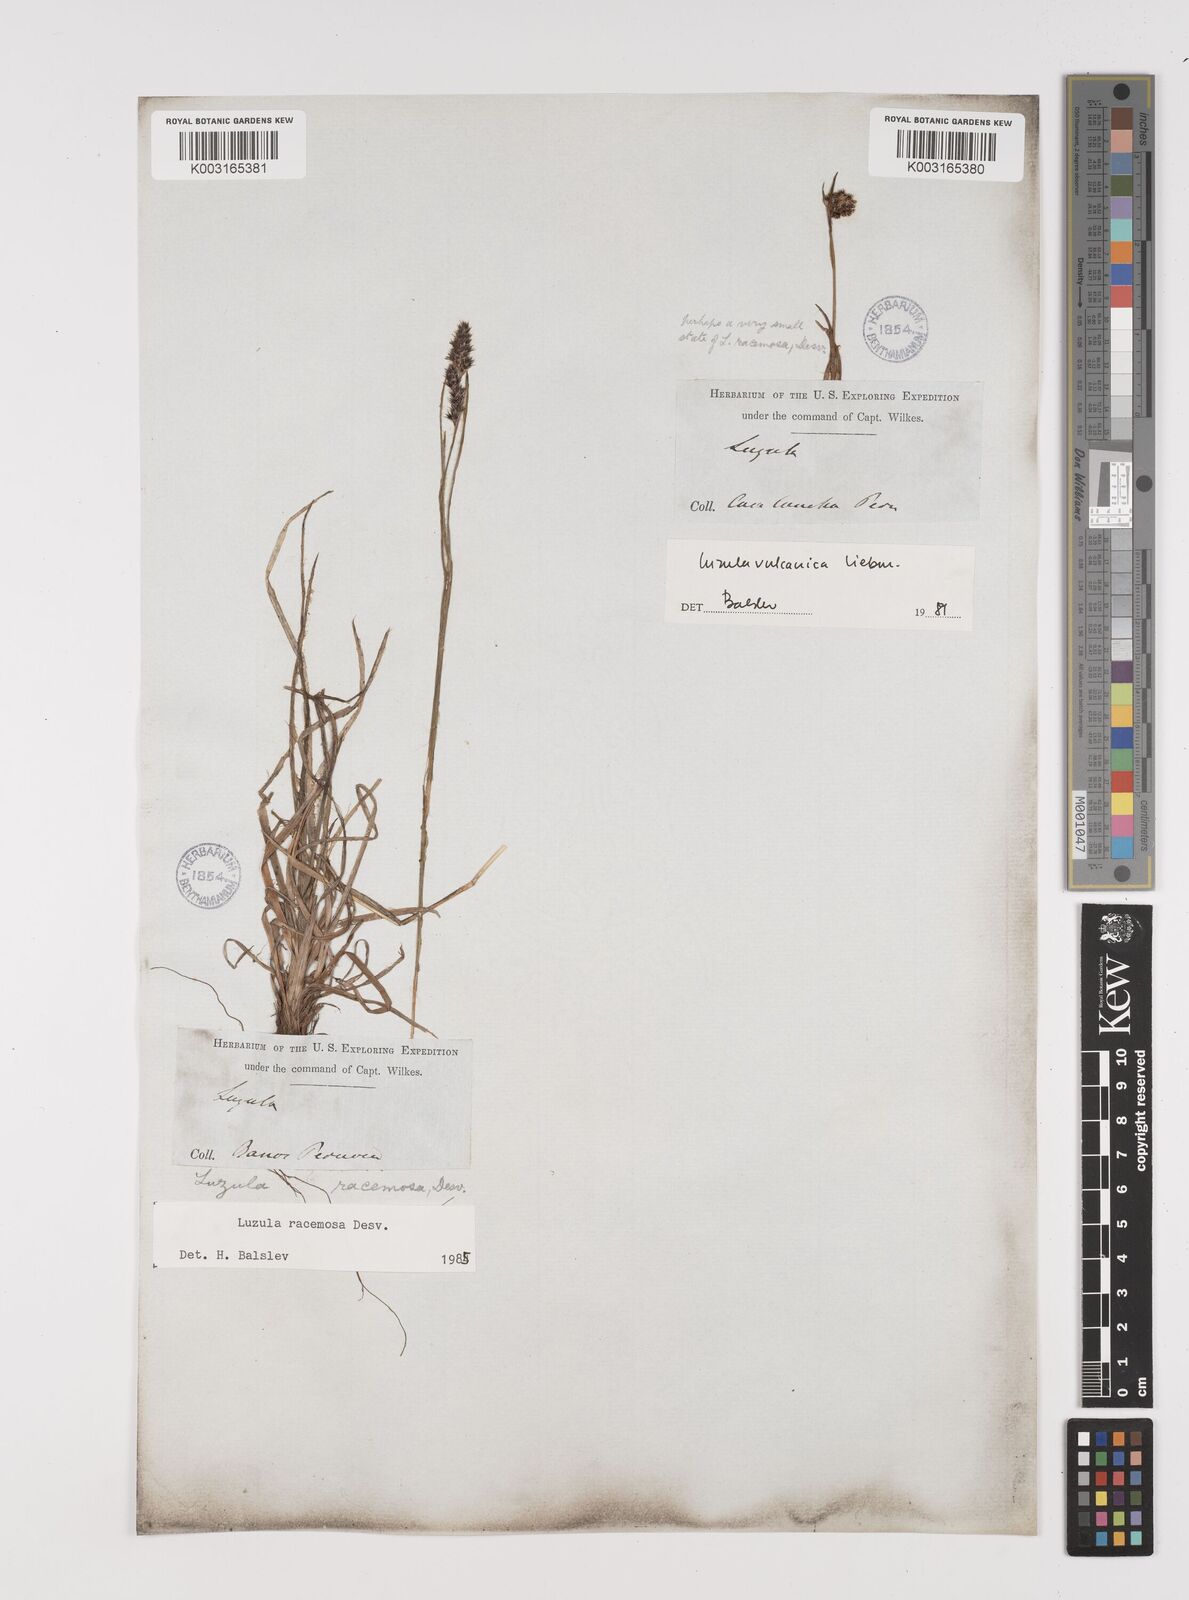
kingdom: Plantae
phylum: Tracheophyta
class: Liliopsida
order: Poales
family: Juncaceae
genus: Luzula
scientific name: Luzula vulcanica
